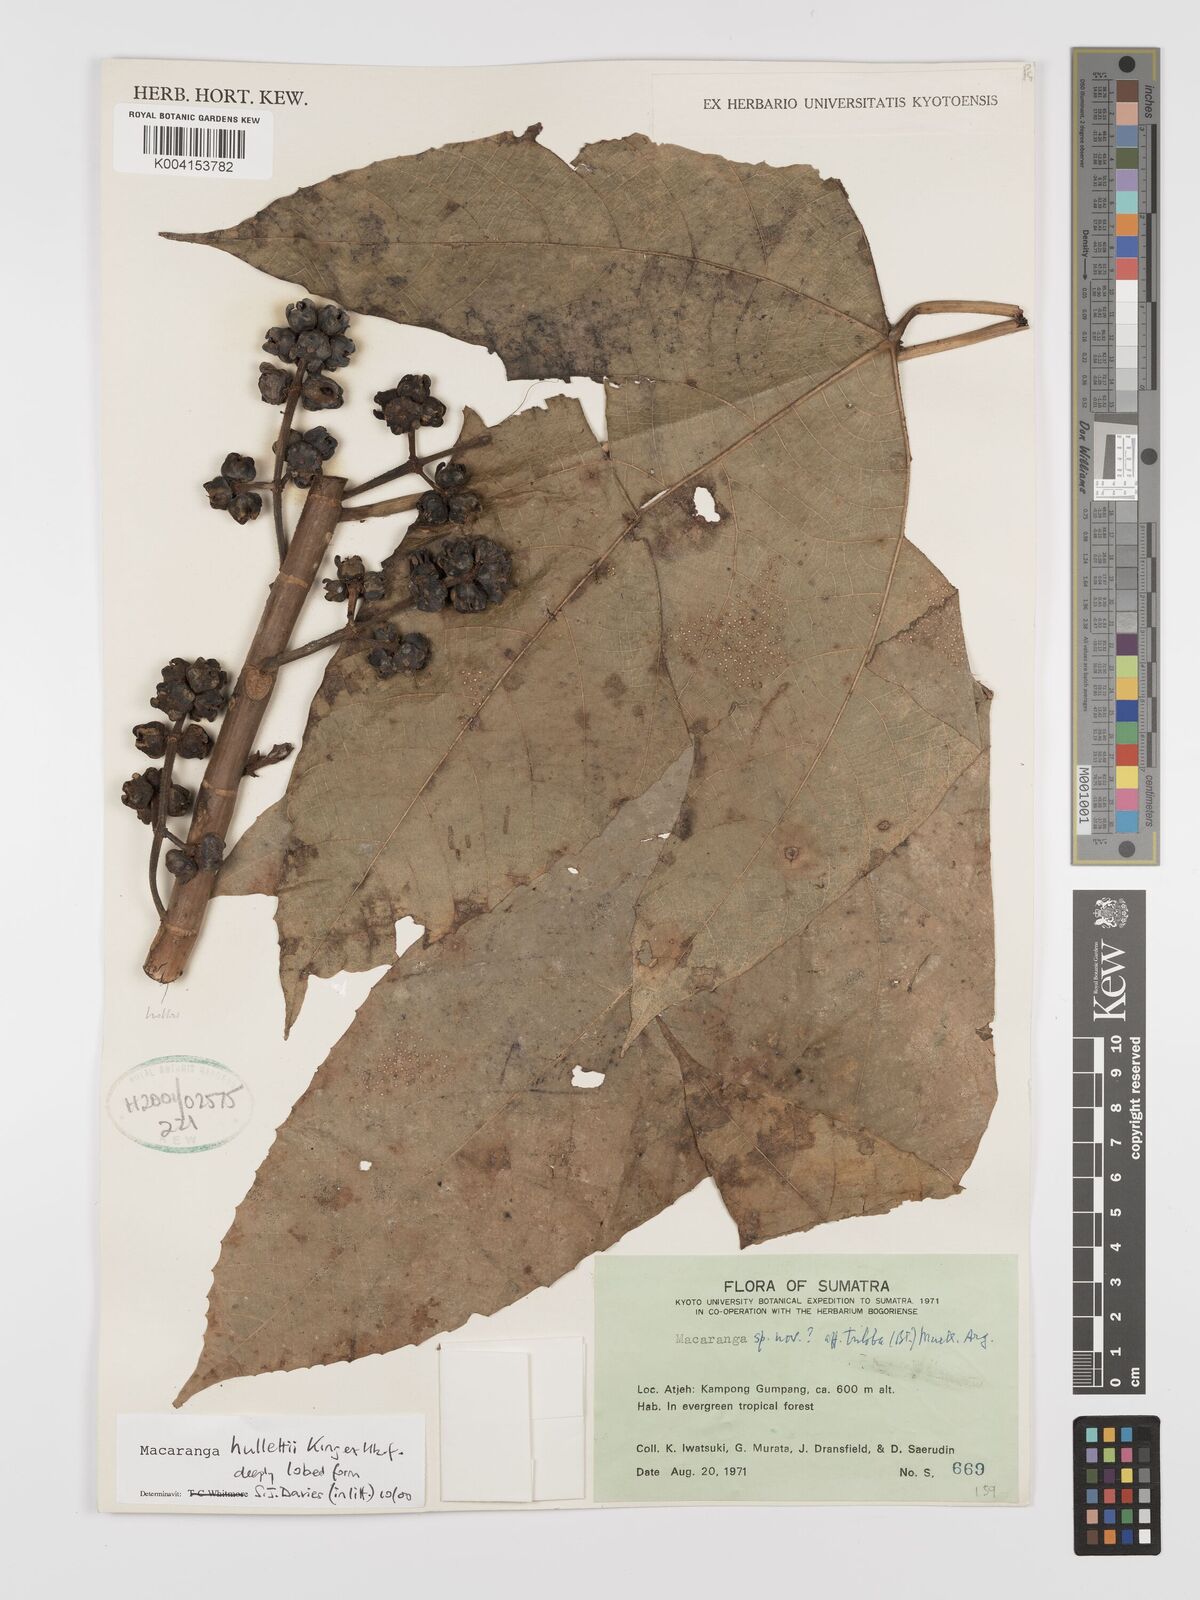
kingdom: Plantae
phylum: Tracheophyta
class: Magnoliopsida
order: Malpighiales
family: Euphorbiaceae
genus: Macaranga
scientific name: Macaranga hullettii
